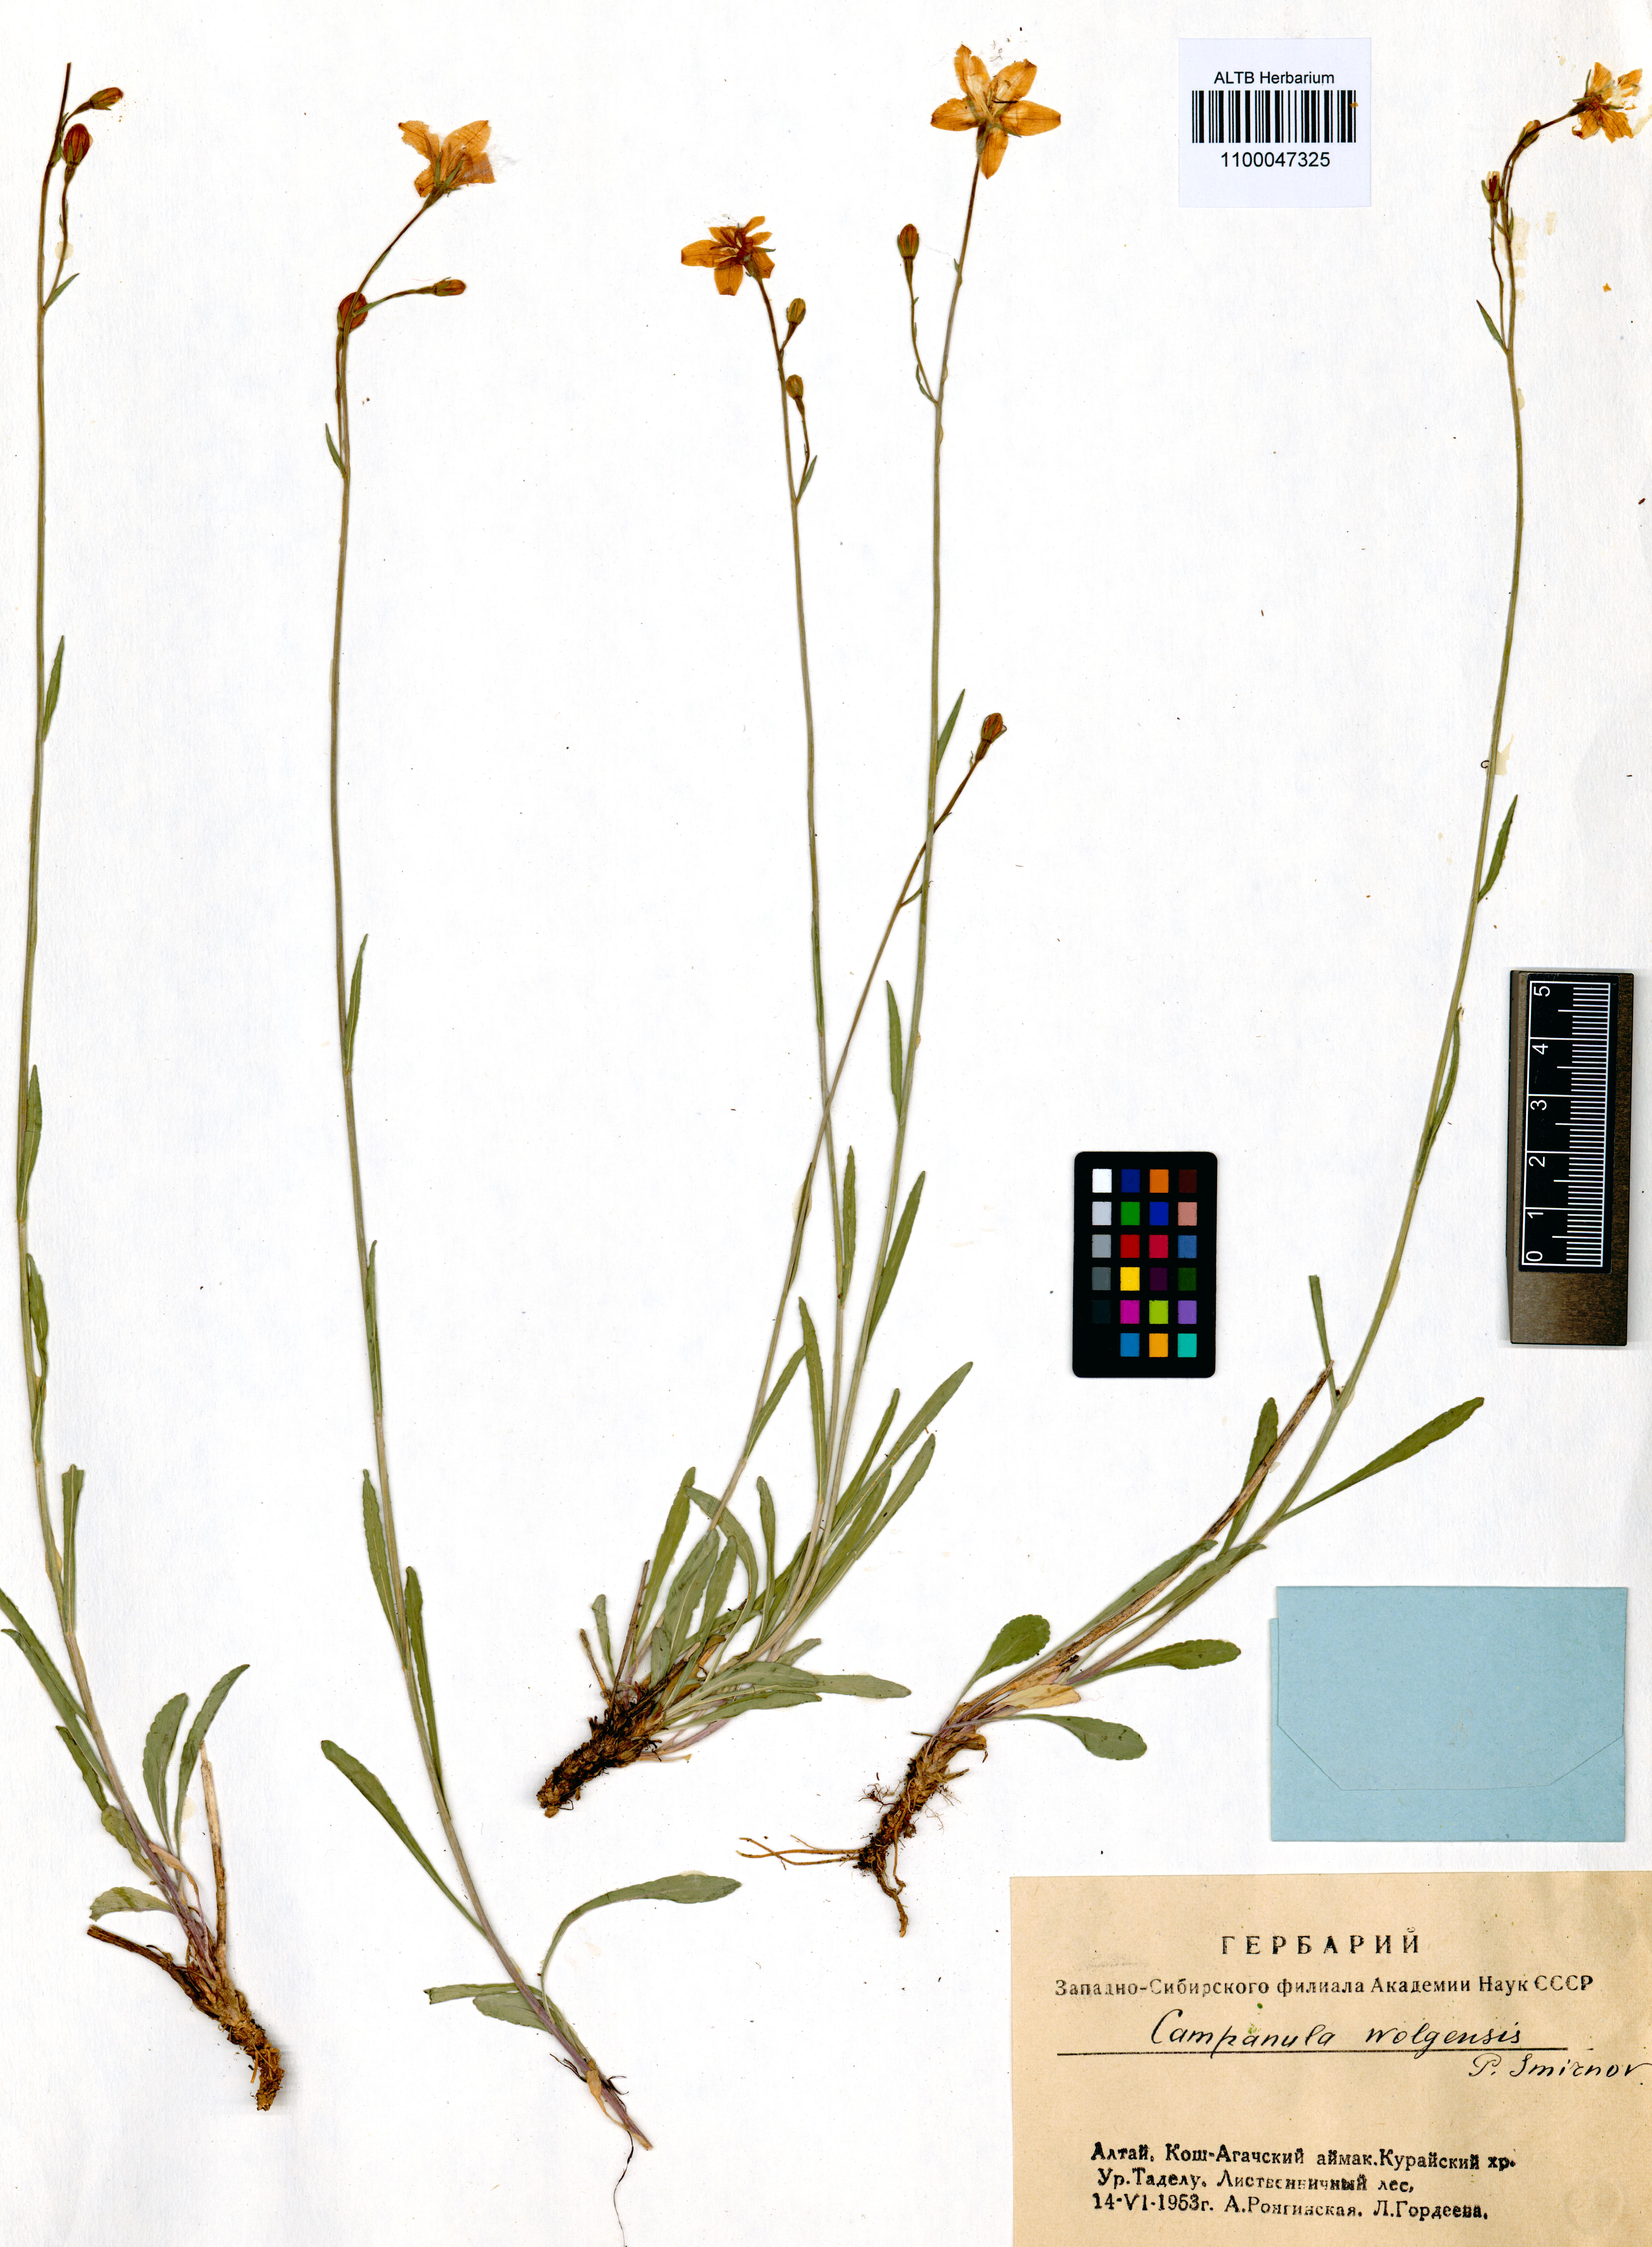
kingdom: Plantae
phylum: Tracheophyta
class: Magnoliopsida
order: Asterales
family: Campanulaceae
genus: Campanula
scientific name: Campanula stevenii
